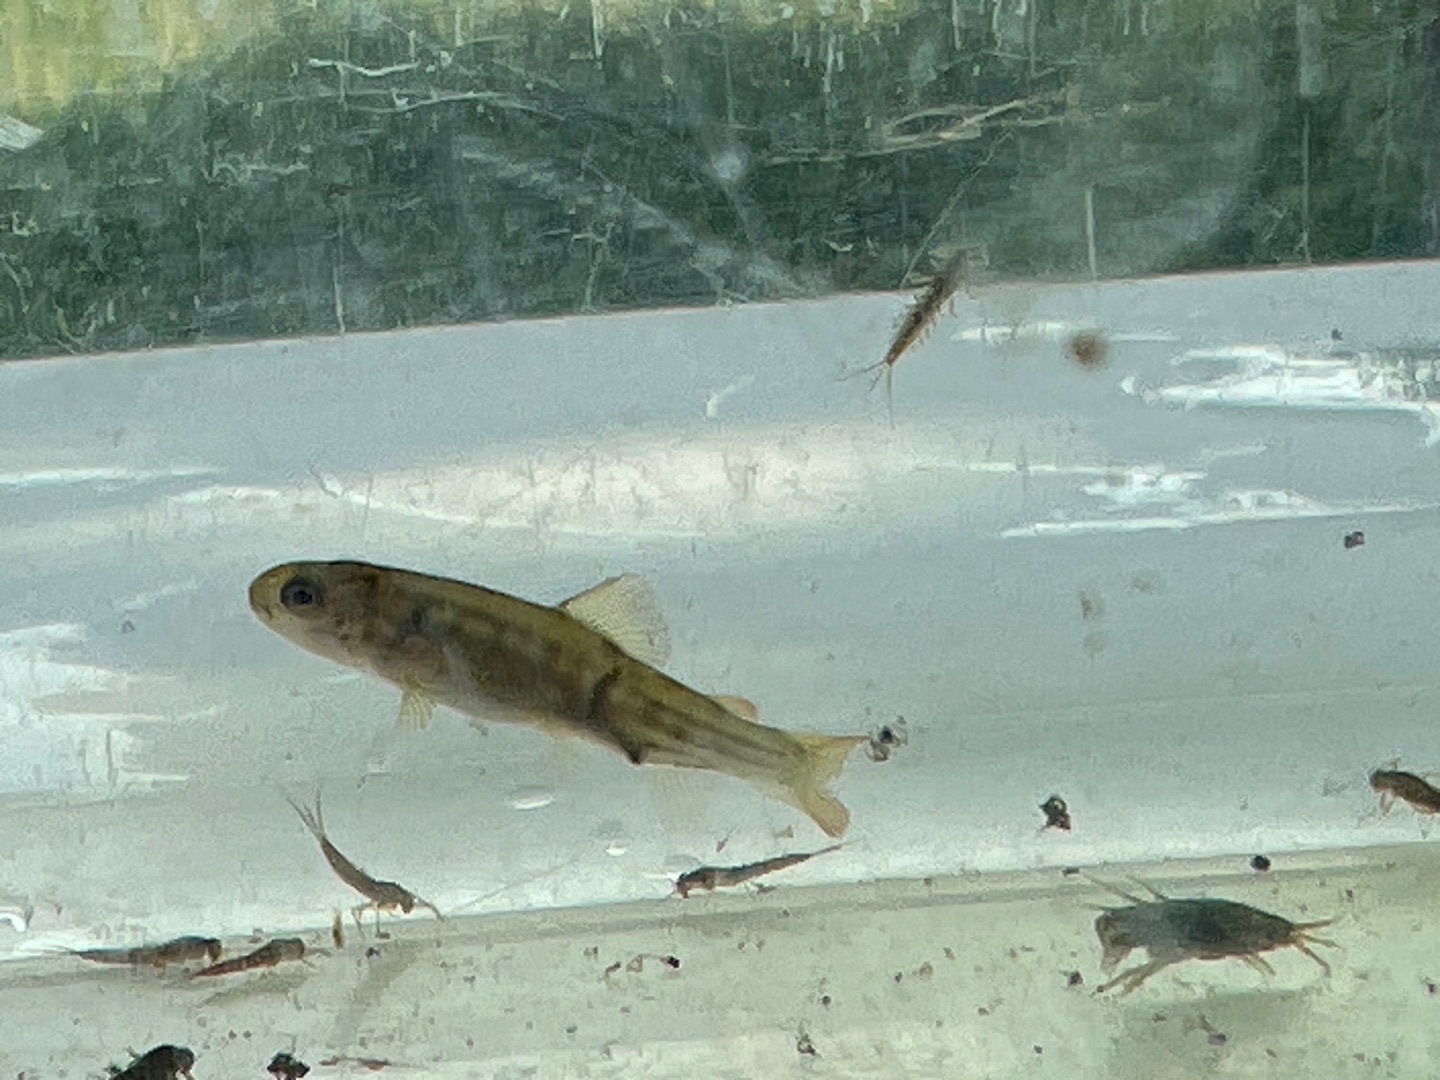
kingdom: Animalia
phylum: Chordata
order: Salmoniformes
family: Salmonidae
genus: Salmo
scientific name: Salmo trutta
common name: Ørred
